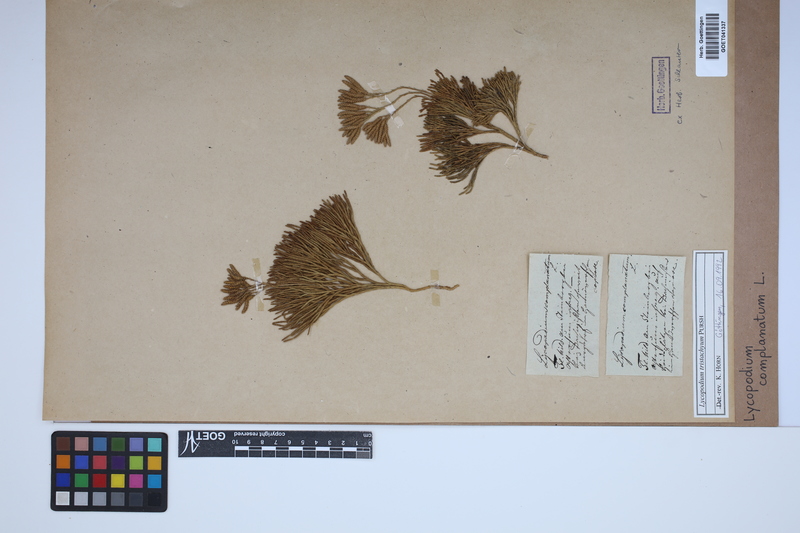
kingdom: Plantae
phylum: Tracheophyta
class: Lycopodiopsida
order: Lycopodiales
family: Lycopodiaceae
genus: Diphasiastrum
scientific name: Diphasiastrum tristachyum
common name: Blue ground-cedar
